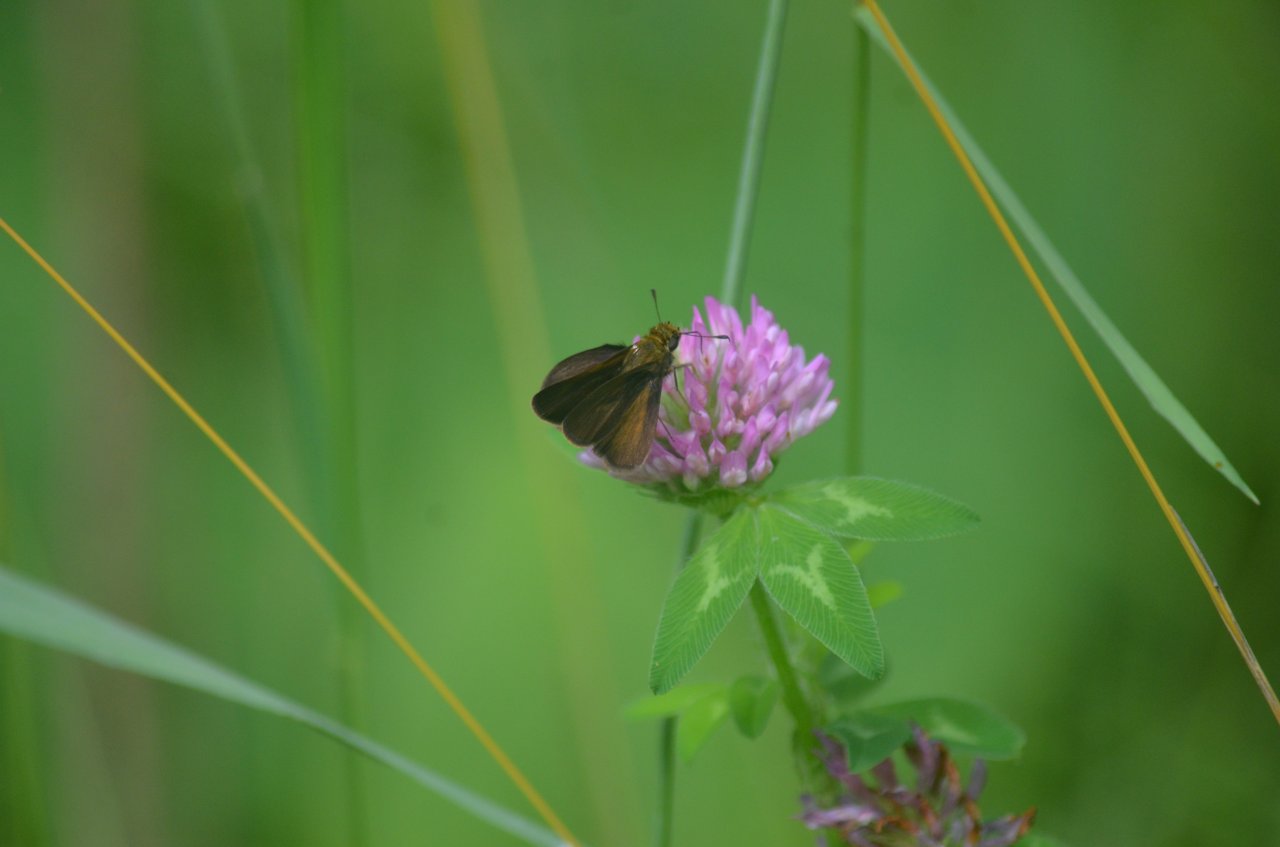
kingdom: Animalia
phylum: Arthropoda
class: Insecta
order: Lepidoptera
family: Hesperiidae
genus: Euphyes
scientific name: Euphyes vestris
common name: Dun Skipper
